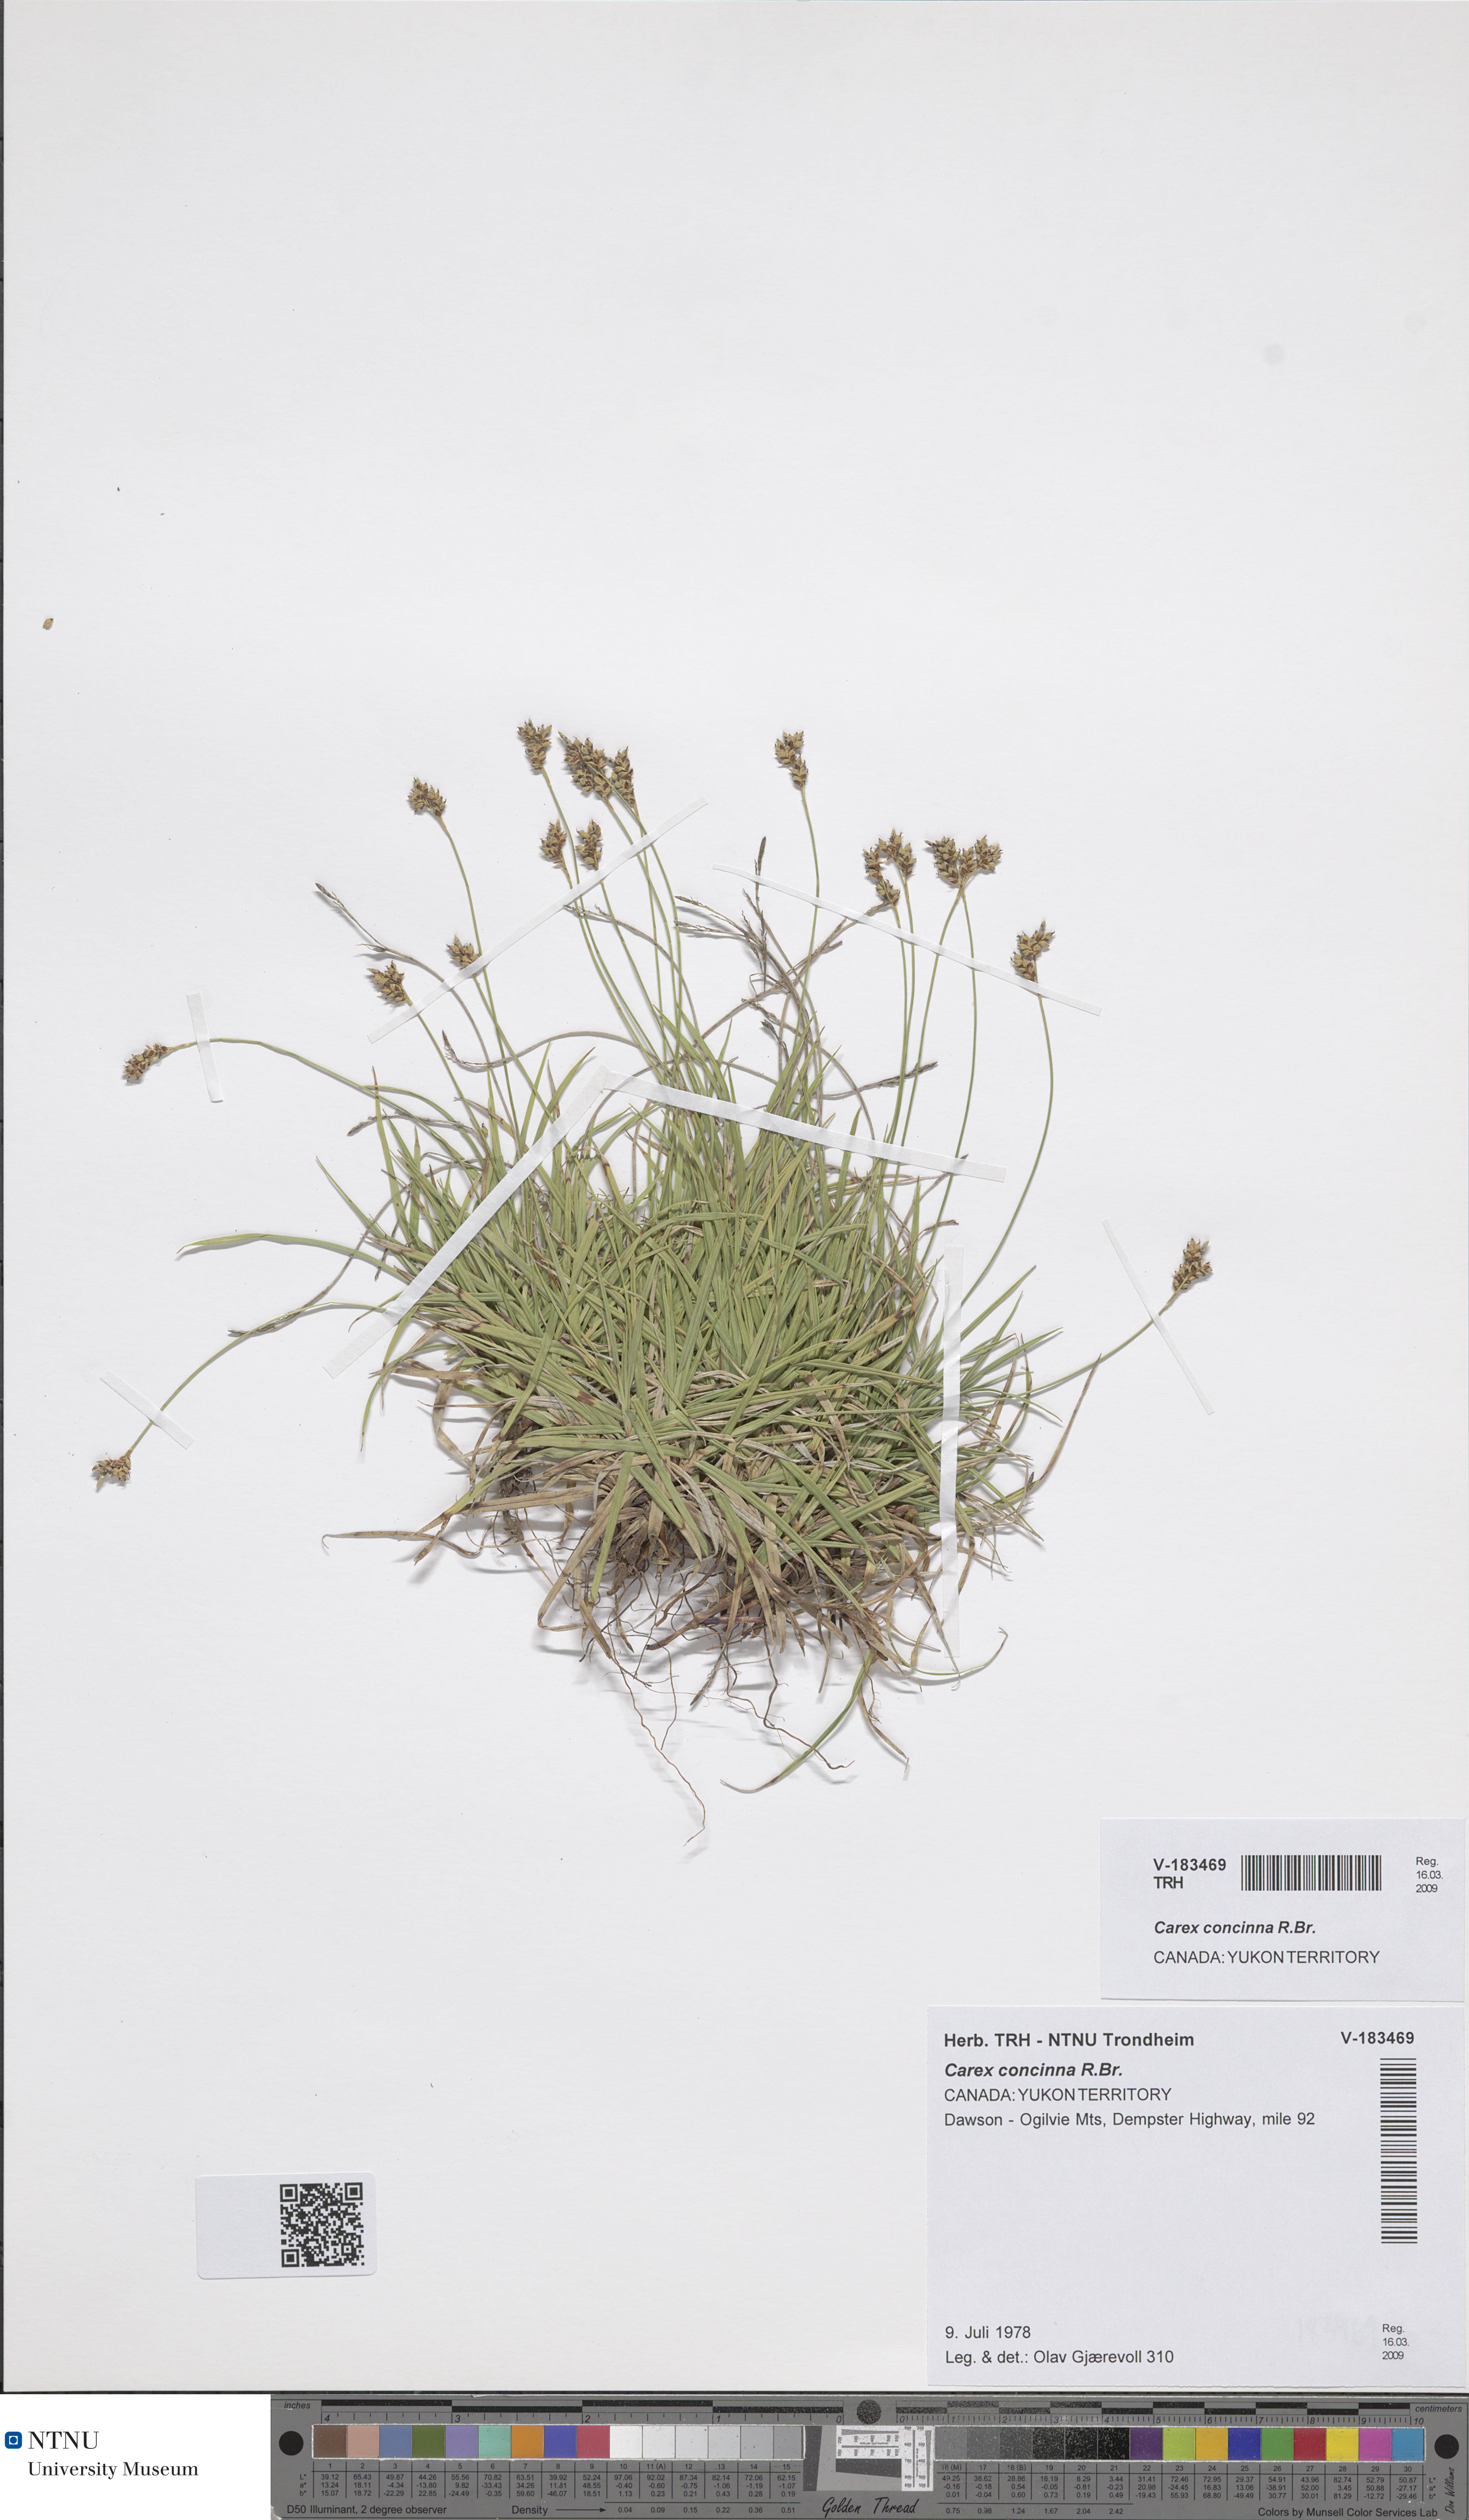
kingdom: Plantae
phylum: Tracheophyta
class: Liliopsida
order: Poales
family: Cyperaceae
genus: Carex
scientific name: Carex concinna
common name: Beautiful sedge
